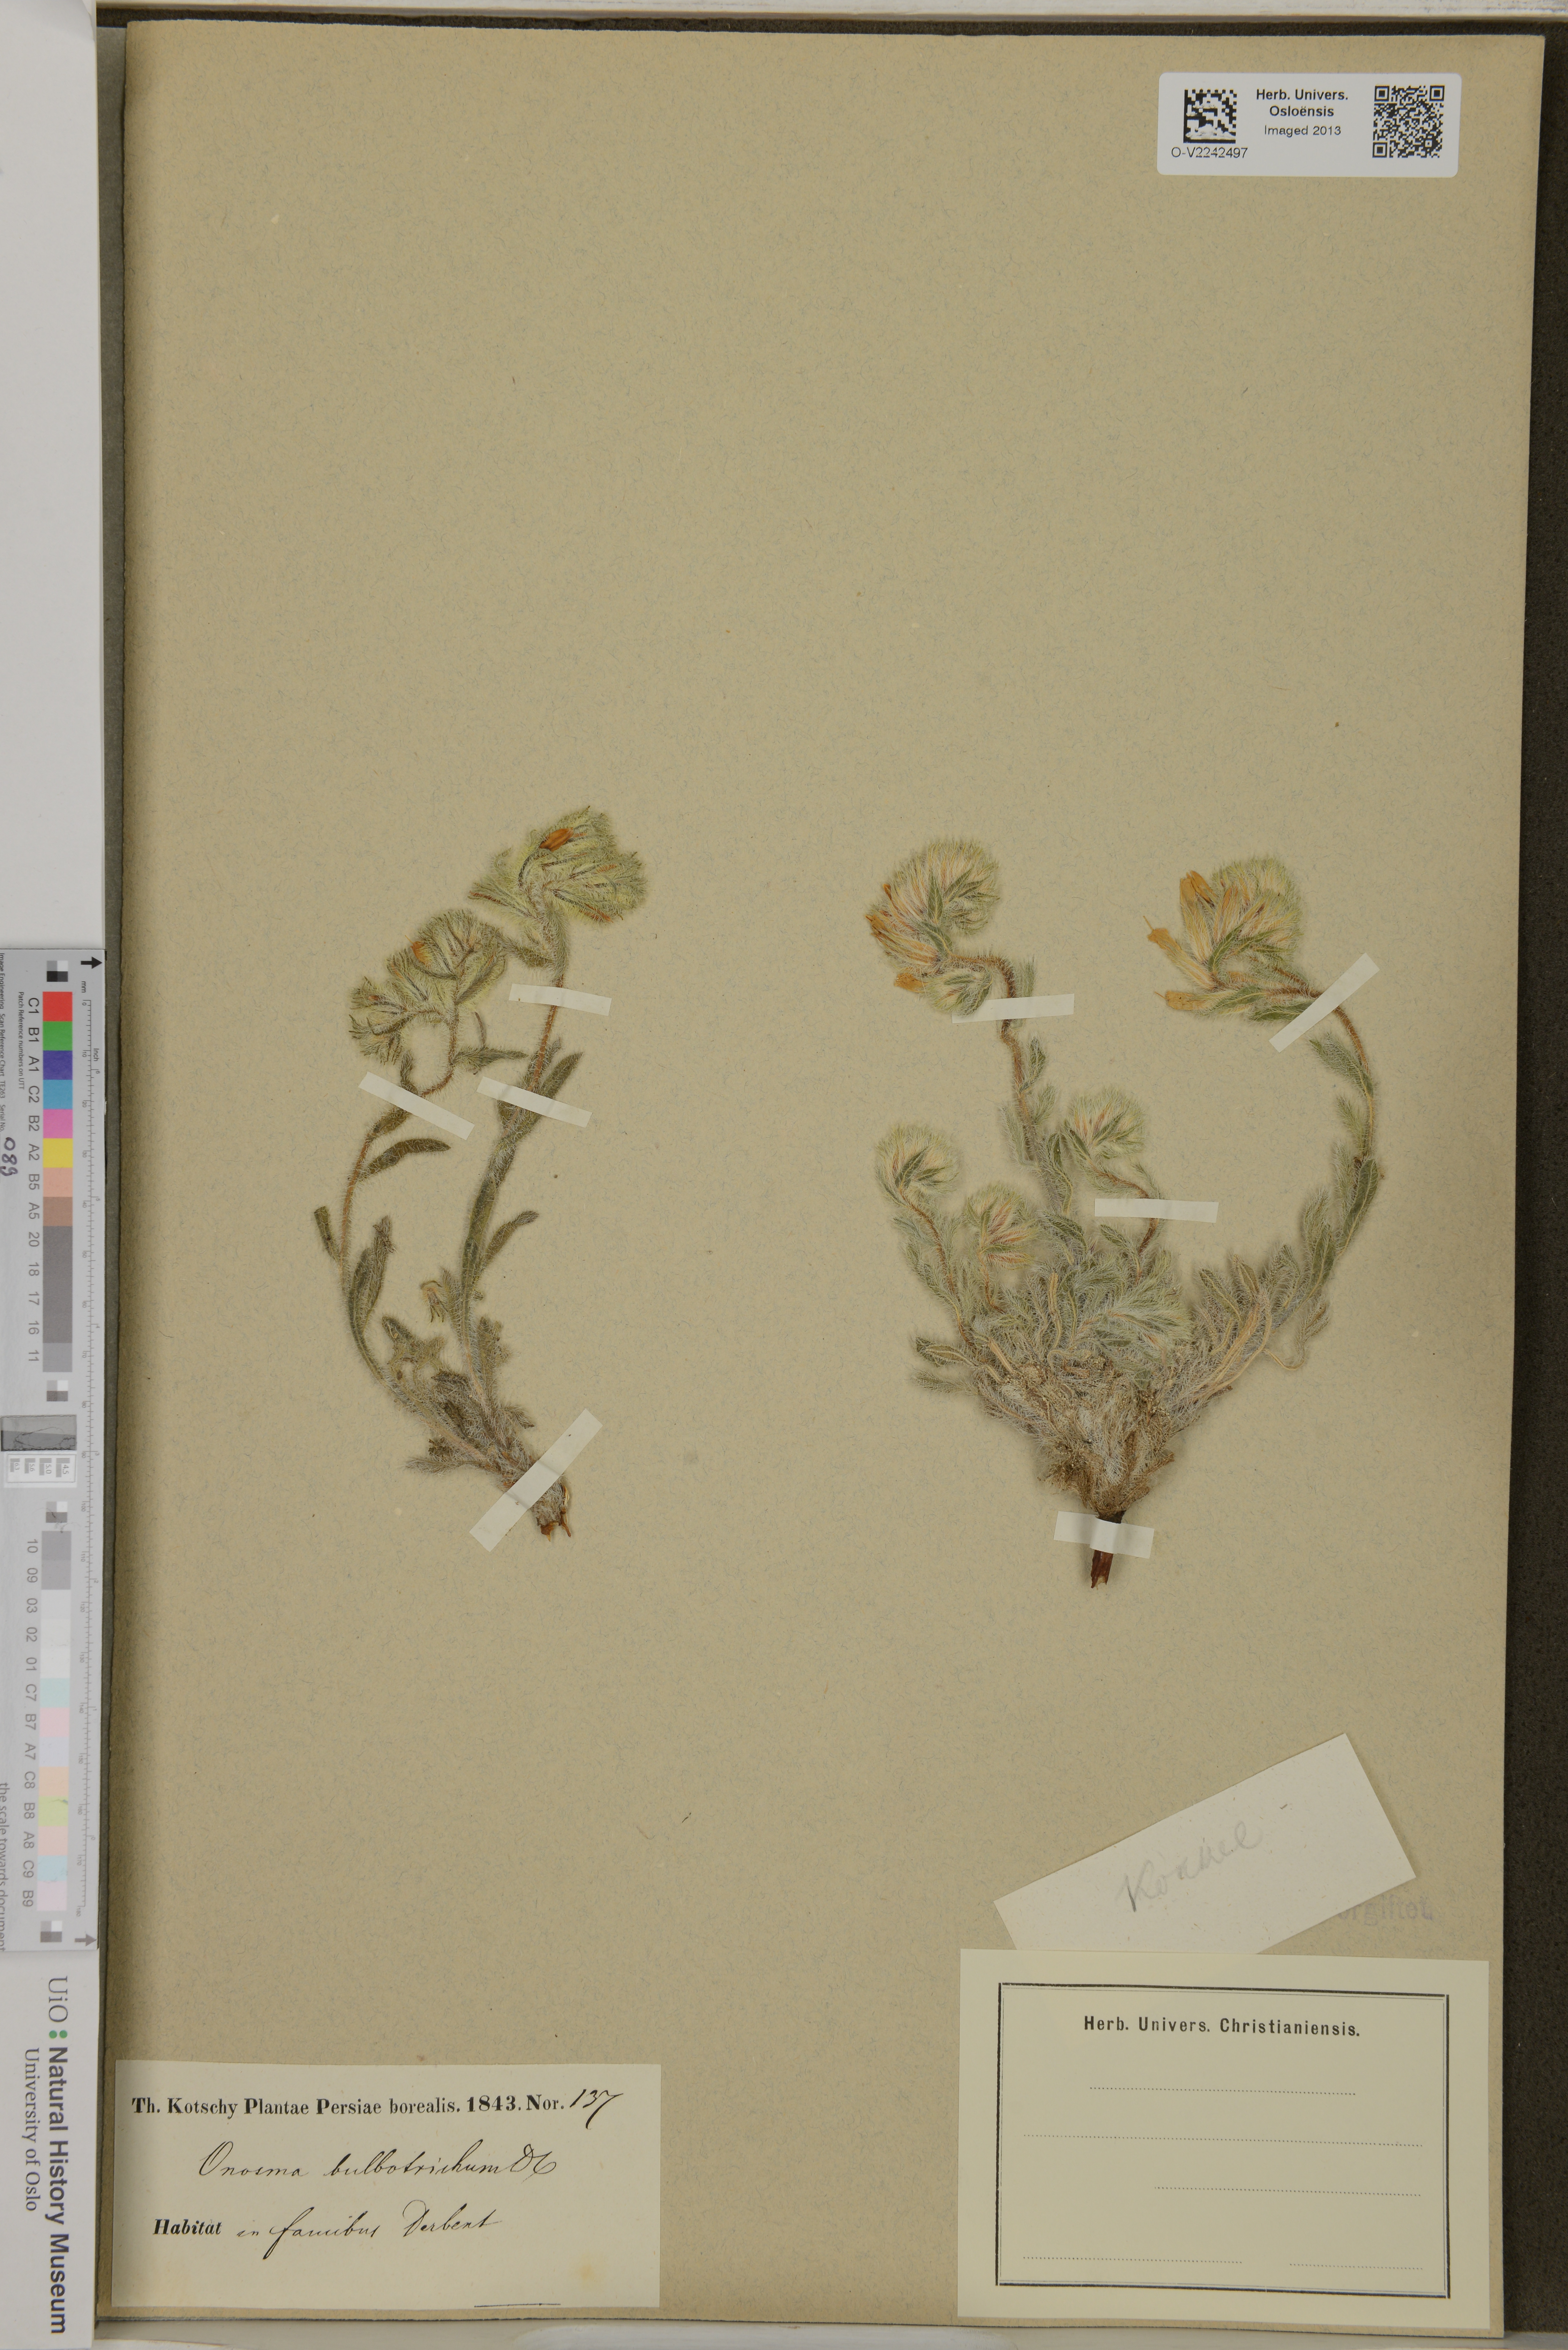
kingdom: Plantae
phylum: Tracheophyta
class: Magnoliopsida
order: Boraginales
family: Boraginaceae
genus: Onosma
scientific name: Onosma bulbotricha
